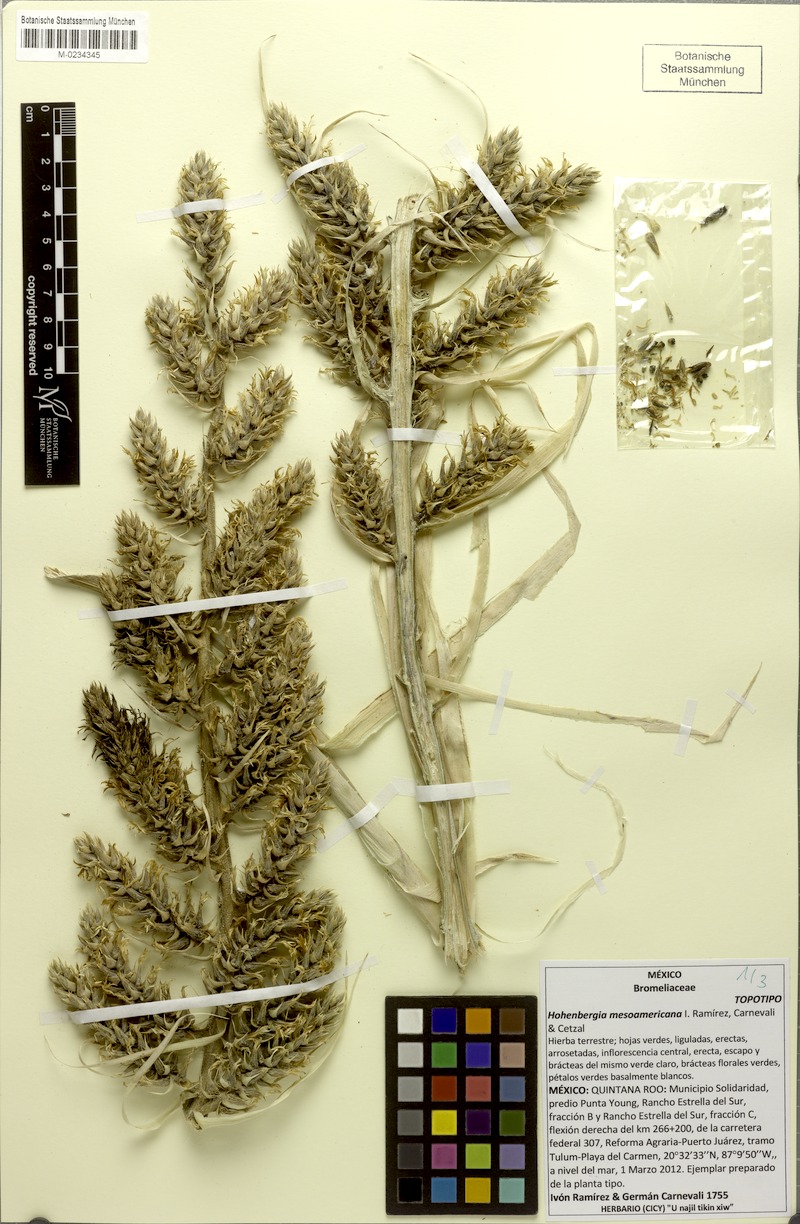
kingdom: Plantae
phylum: Tracheophyta
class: Liliopsida
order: Poales
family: Bromeliaceae
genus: Wittmackia
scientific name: Wittmackia mesoamericana
